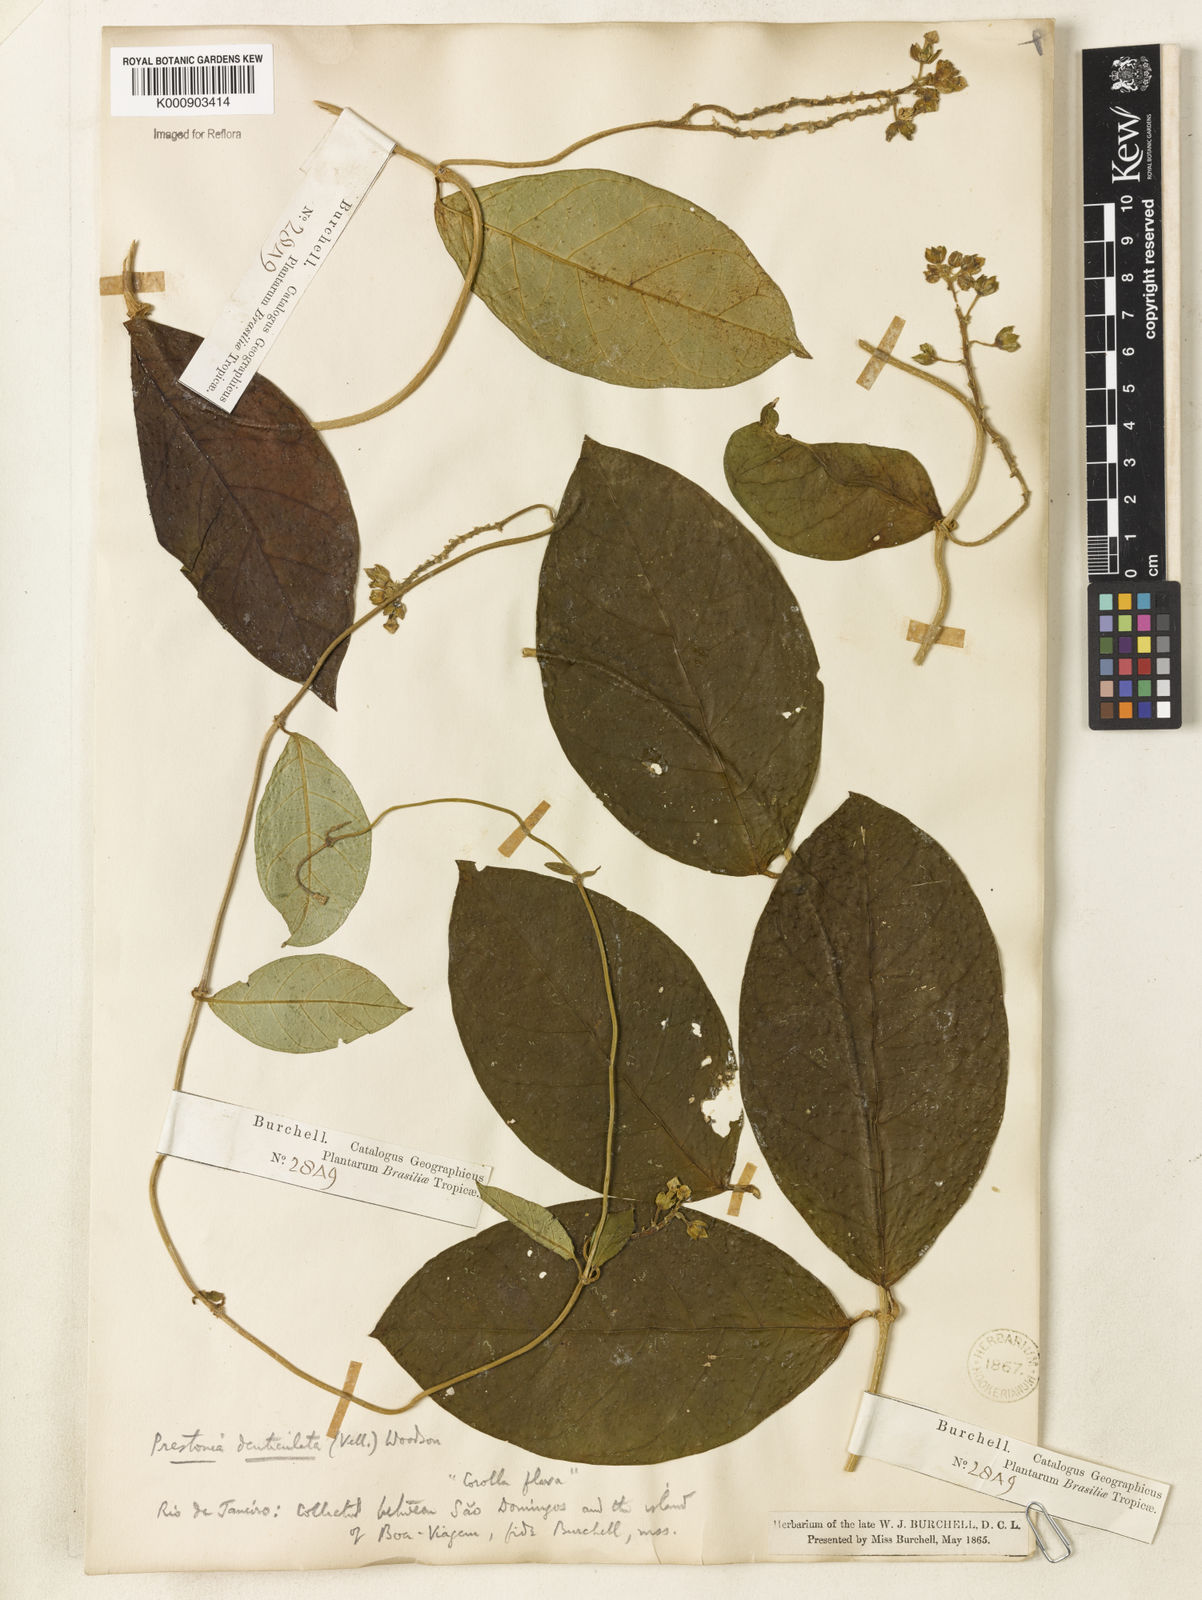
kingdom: Plantae
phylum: Tracheophyta
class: Magnoliopsida
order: Gentianales
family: Apocynaceae
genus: Prestonia
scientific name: Prestonia denticulata
